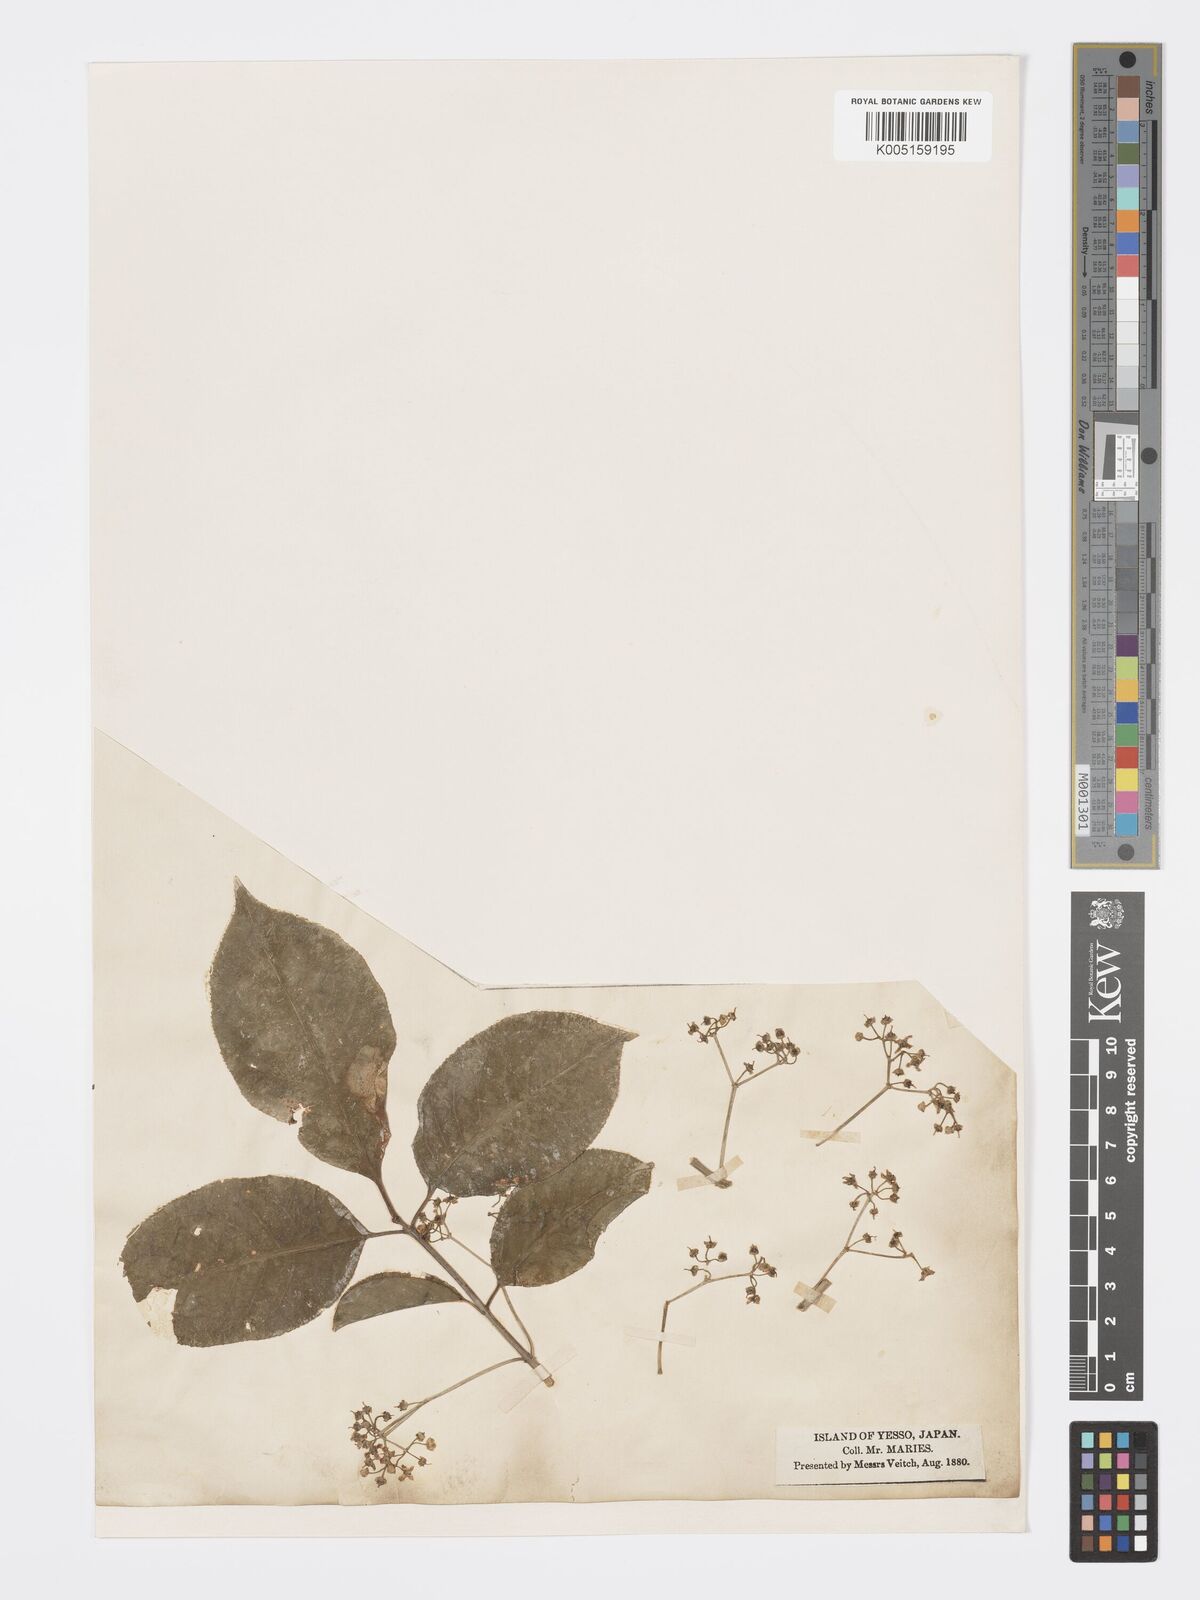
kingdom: Plantae
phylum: Tracheophyta
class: Magnoliopsida
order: Celastrales
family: Celastraceae
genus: Euonymus
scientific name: Euonymus hamiltonianus
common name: Hamilton's spindletree
